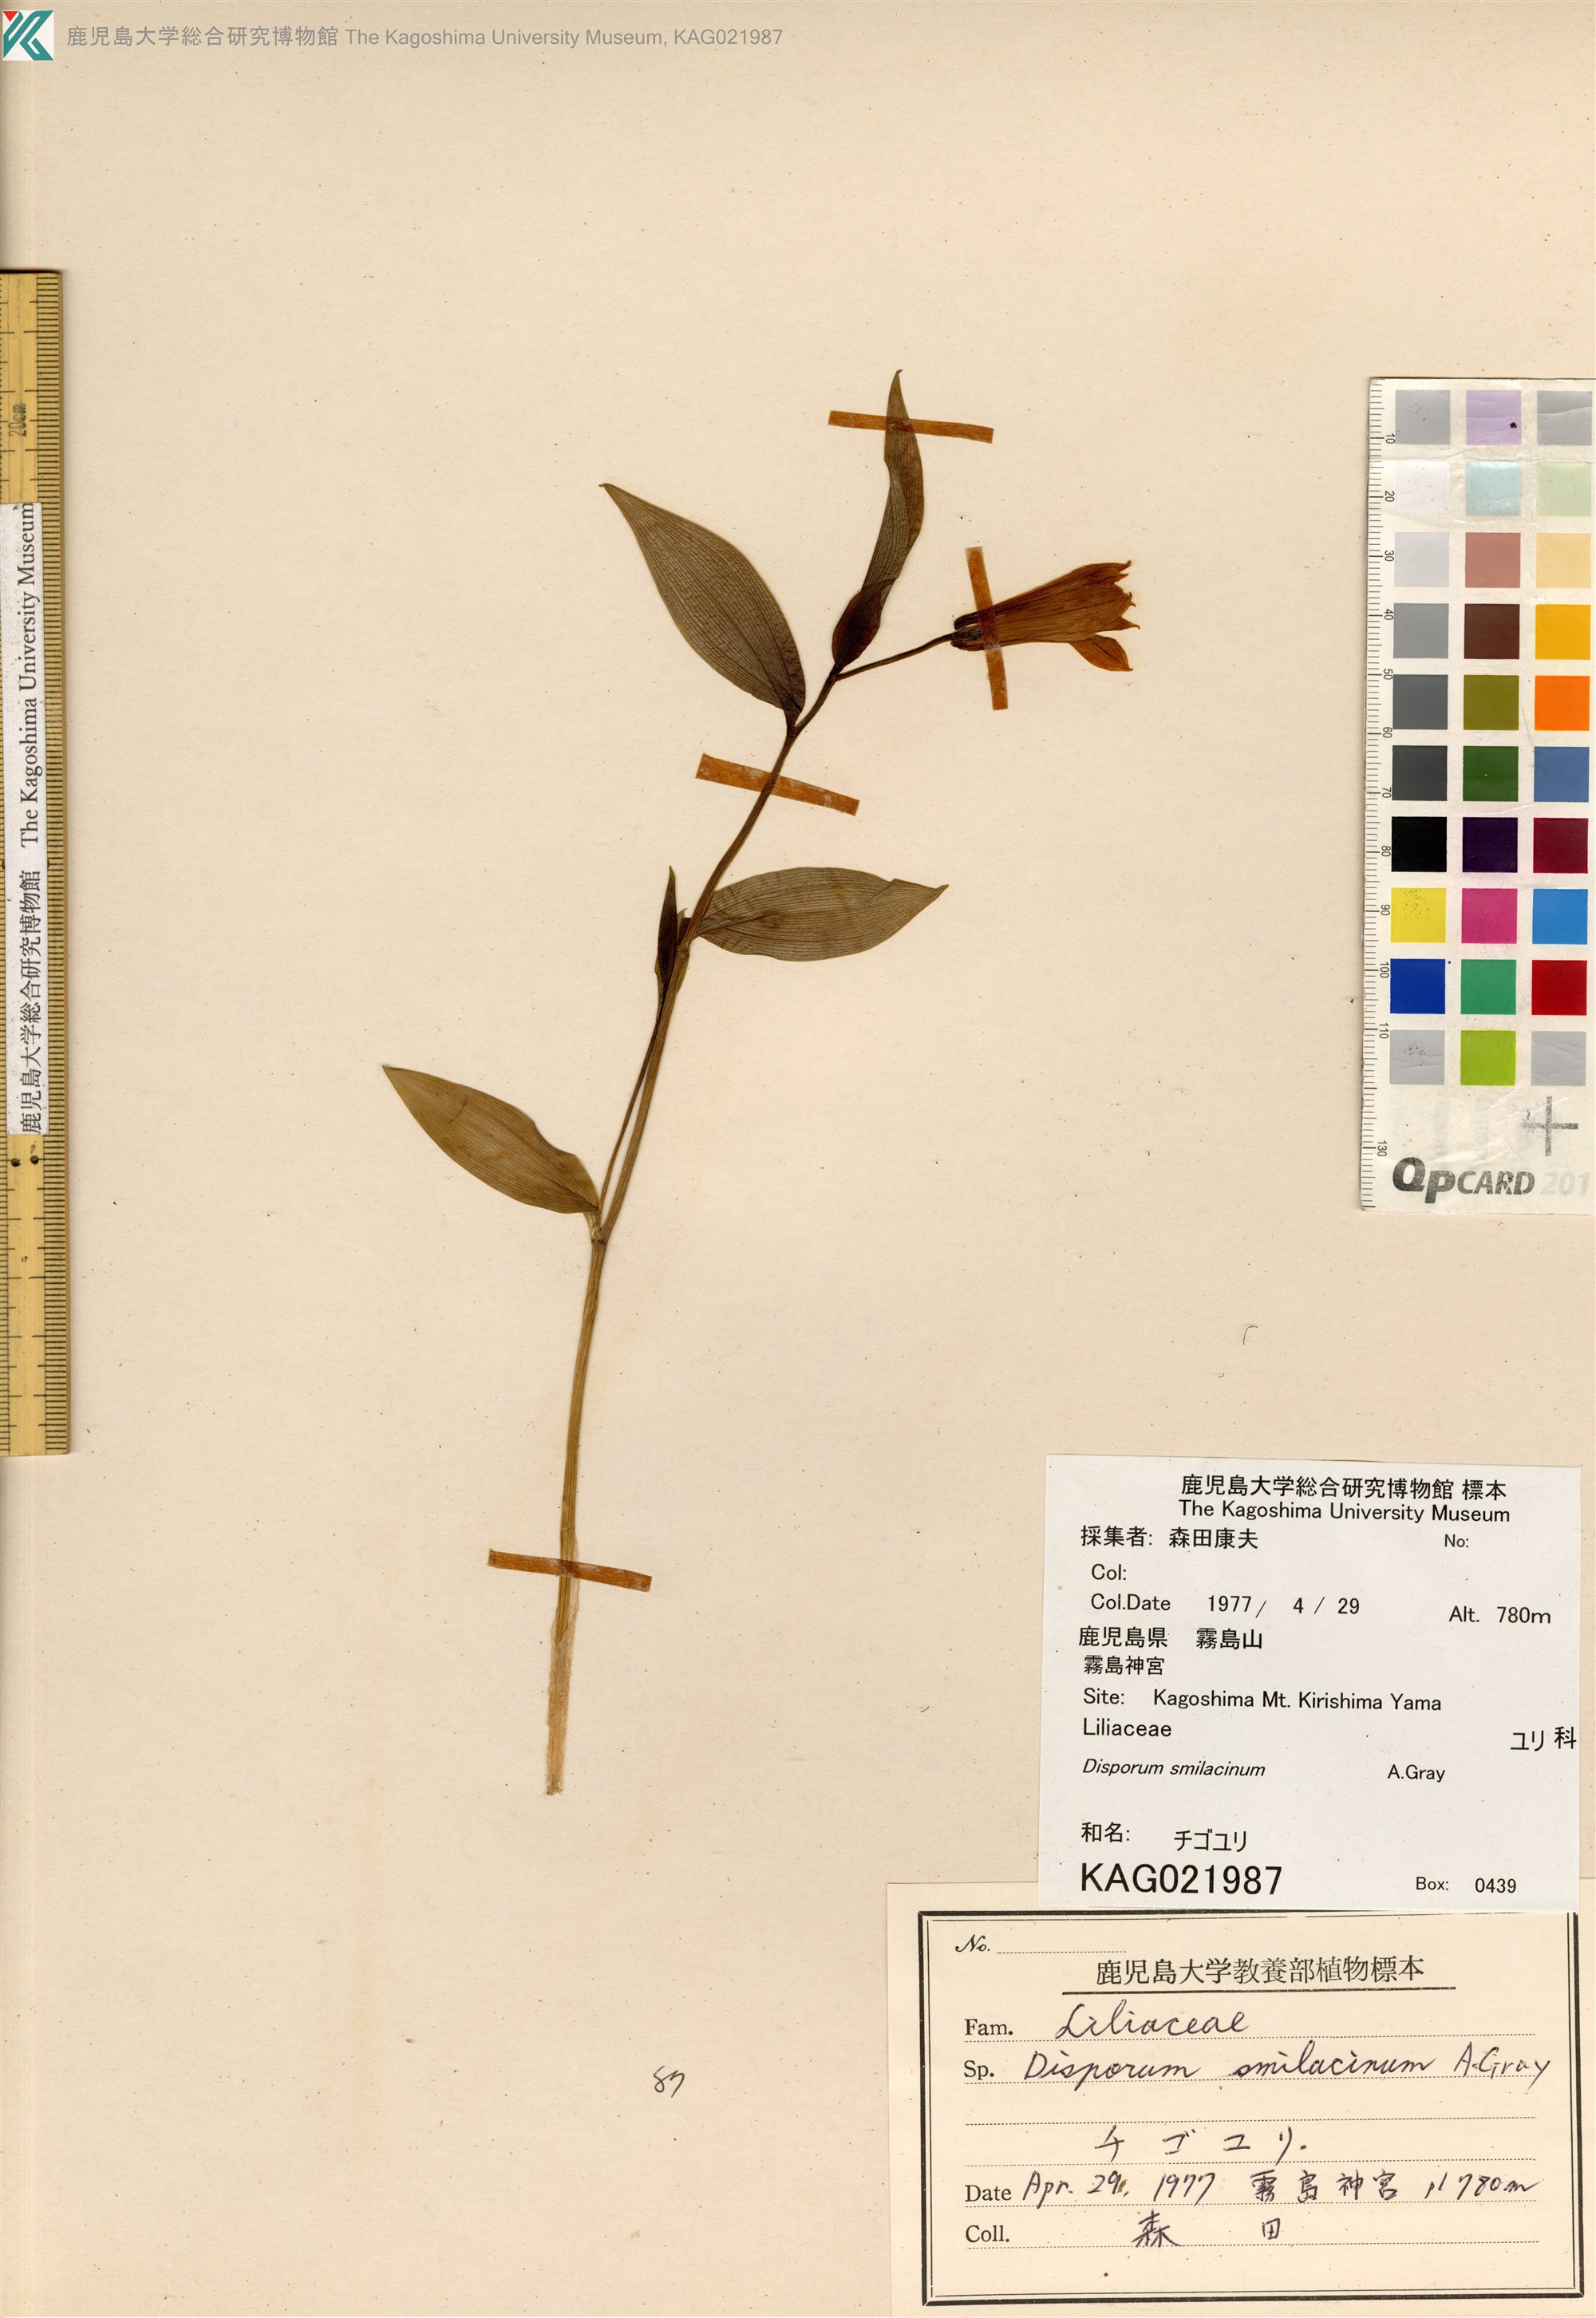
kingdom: Plantae
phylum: Tracheophyta
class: Liliopsida
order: Liliales
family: Colchicaceae
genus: Disporum
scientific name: Disporum smilacinum
